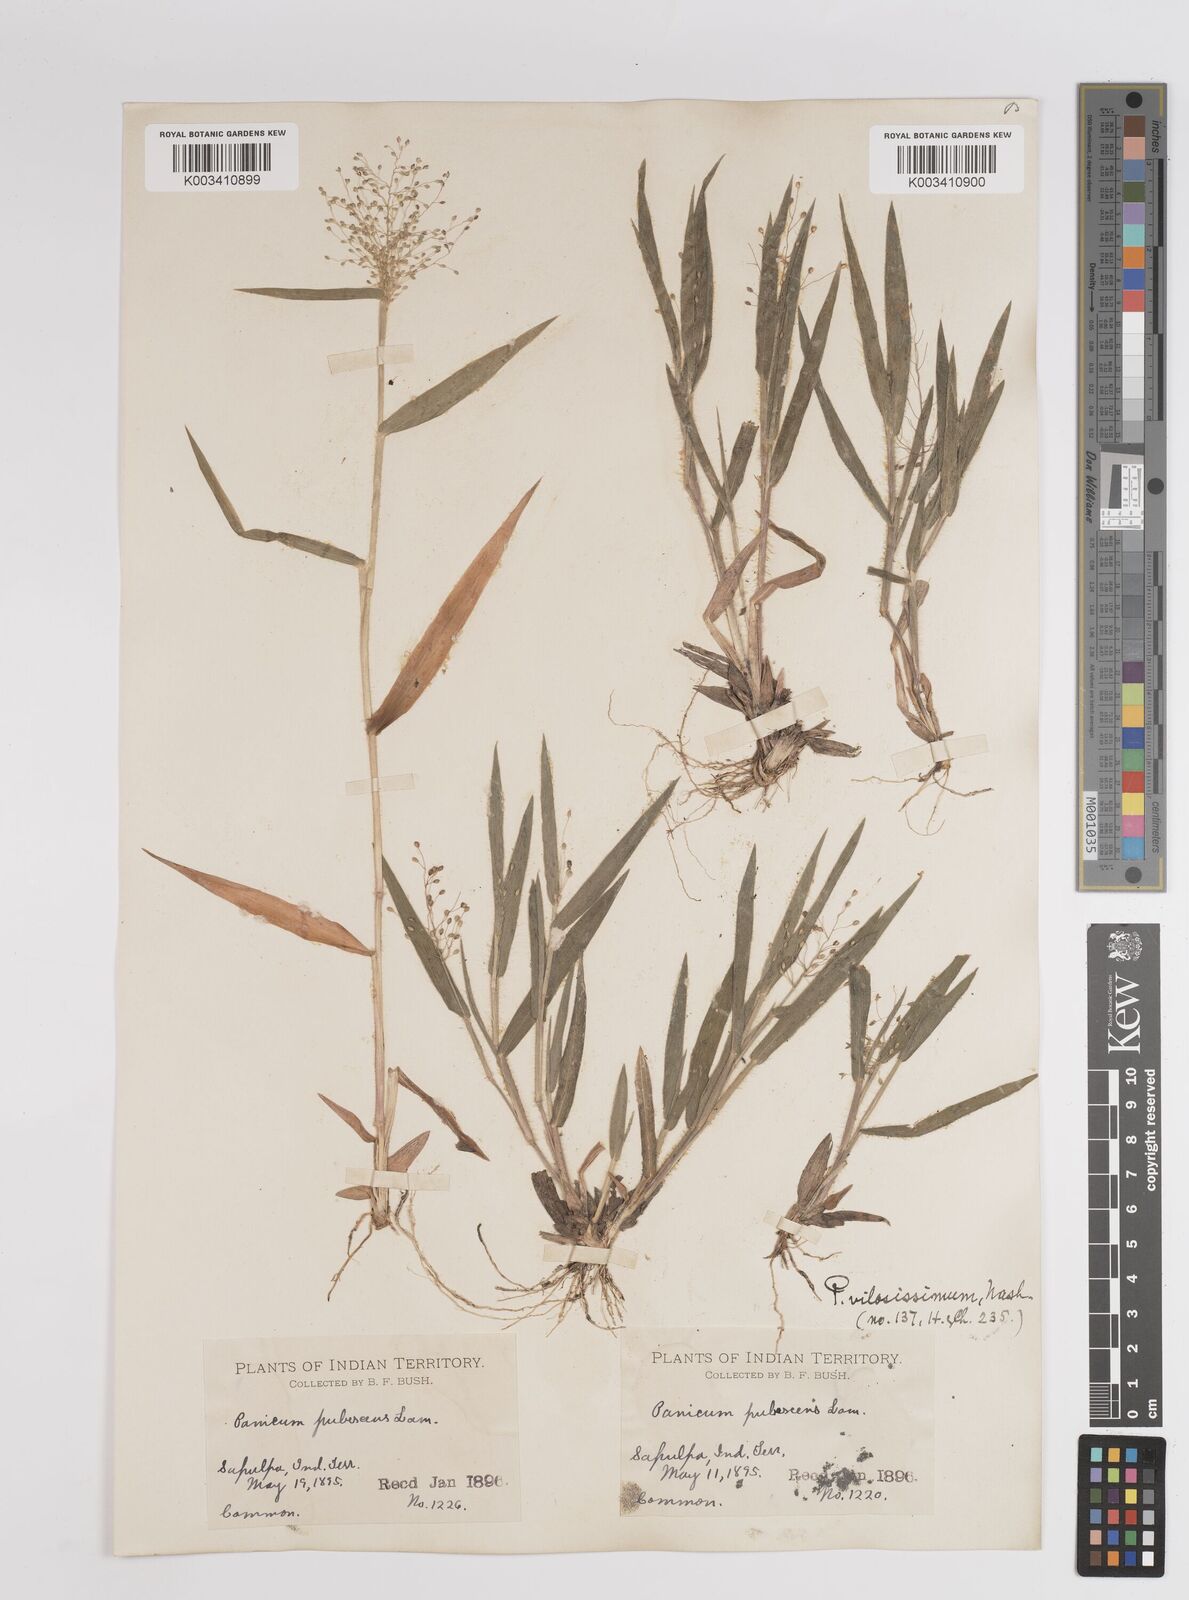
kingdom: Plantae
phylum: Tracheophyta
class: Liliopsida
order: Poales
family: Poaceae
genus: Dichanthelium
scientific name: Dichanthelium villosissimum
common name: White-haired panicgrass
